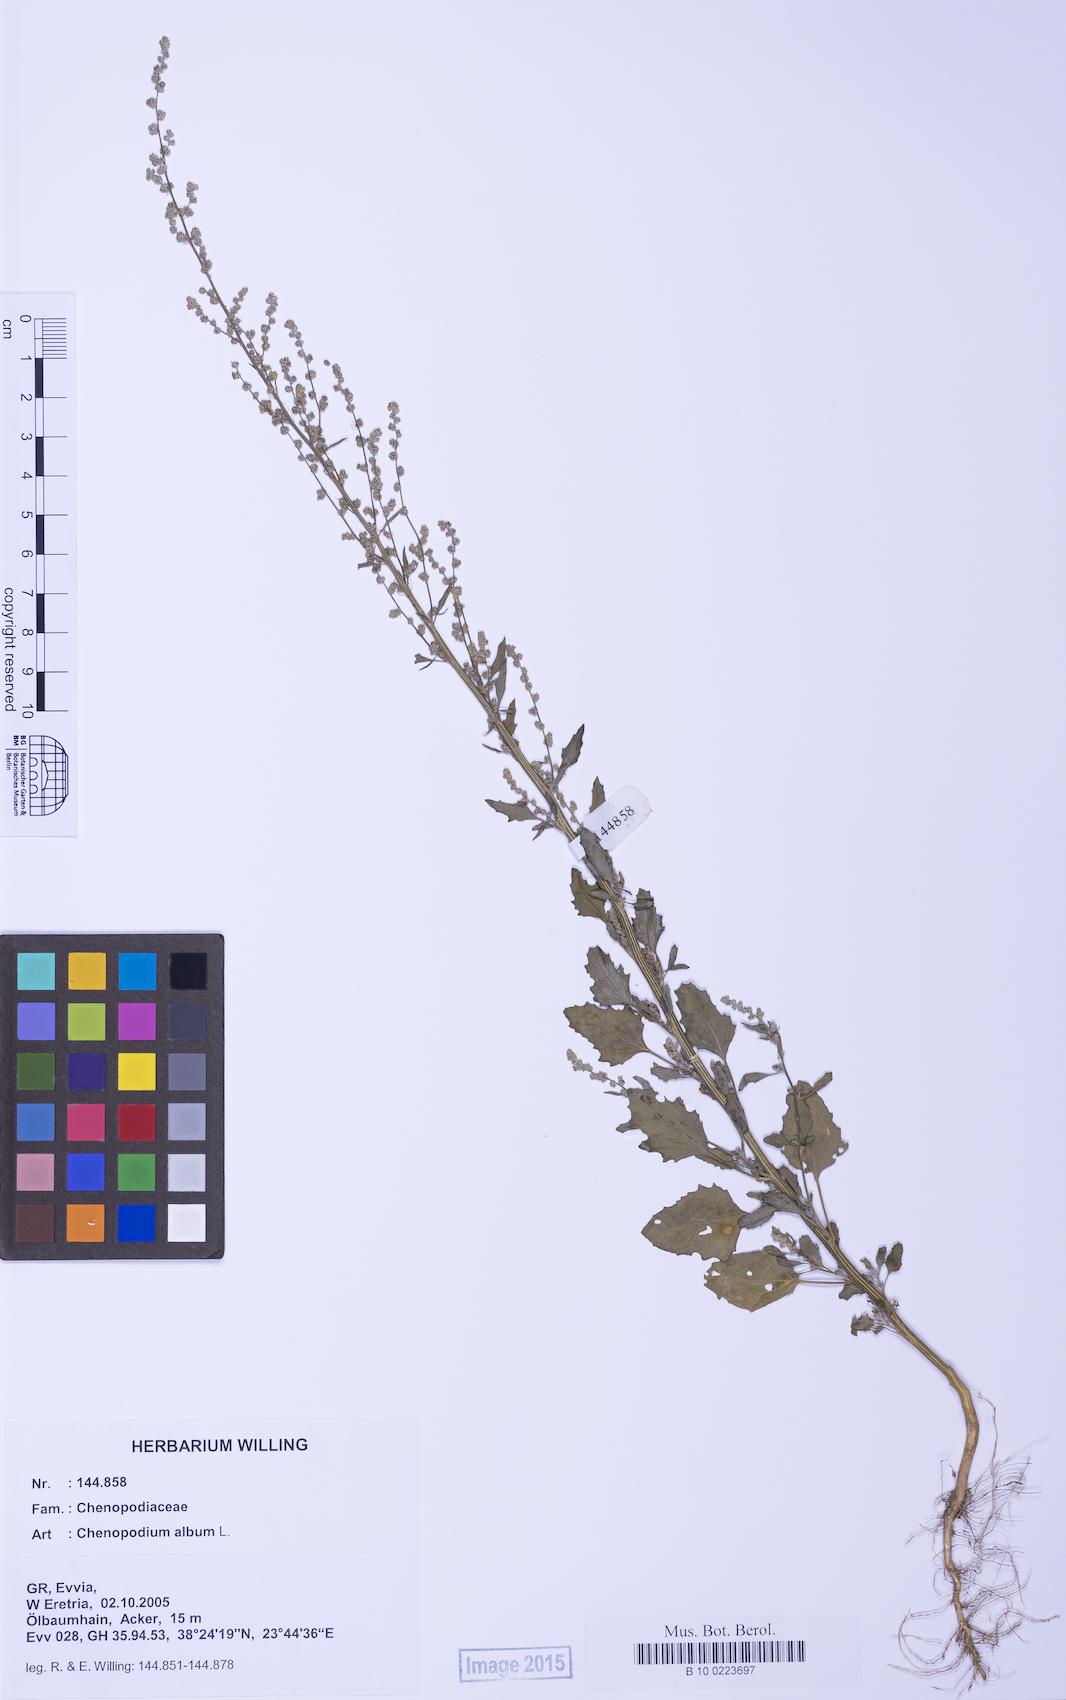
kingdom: Plantae
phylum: Tracheophyta
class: Magnoliopsida
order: Caryophyllales
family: Amaranthaceae
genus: Chenopodium
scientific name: Chenopodium album
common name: Fat-hen
